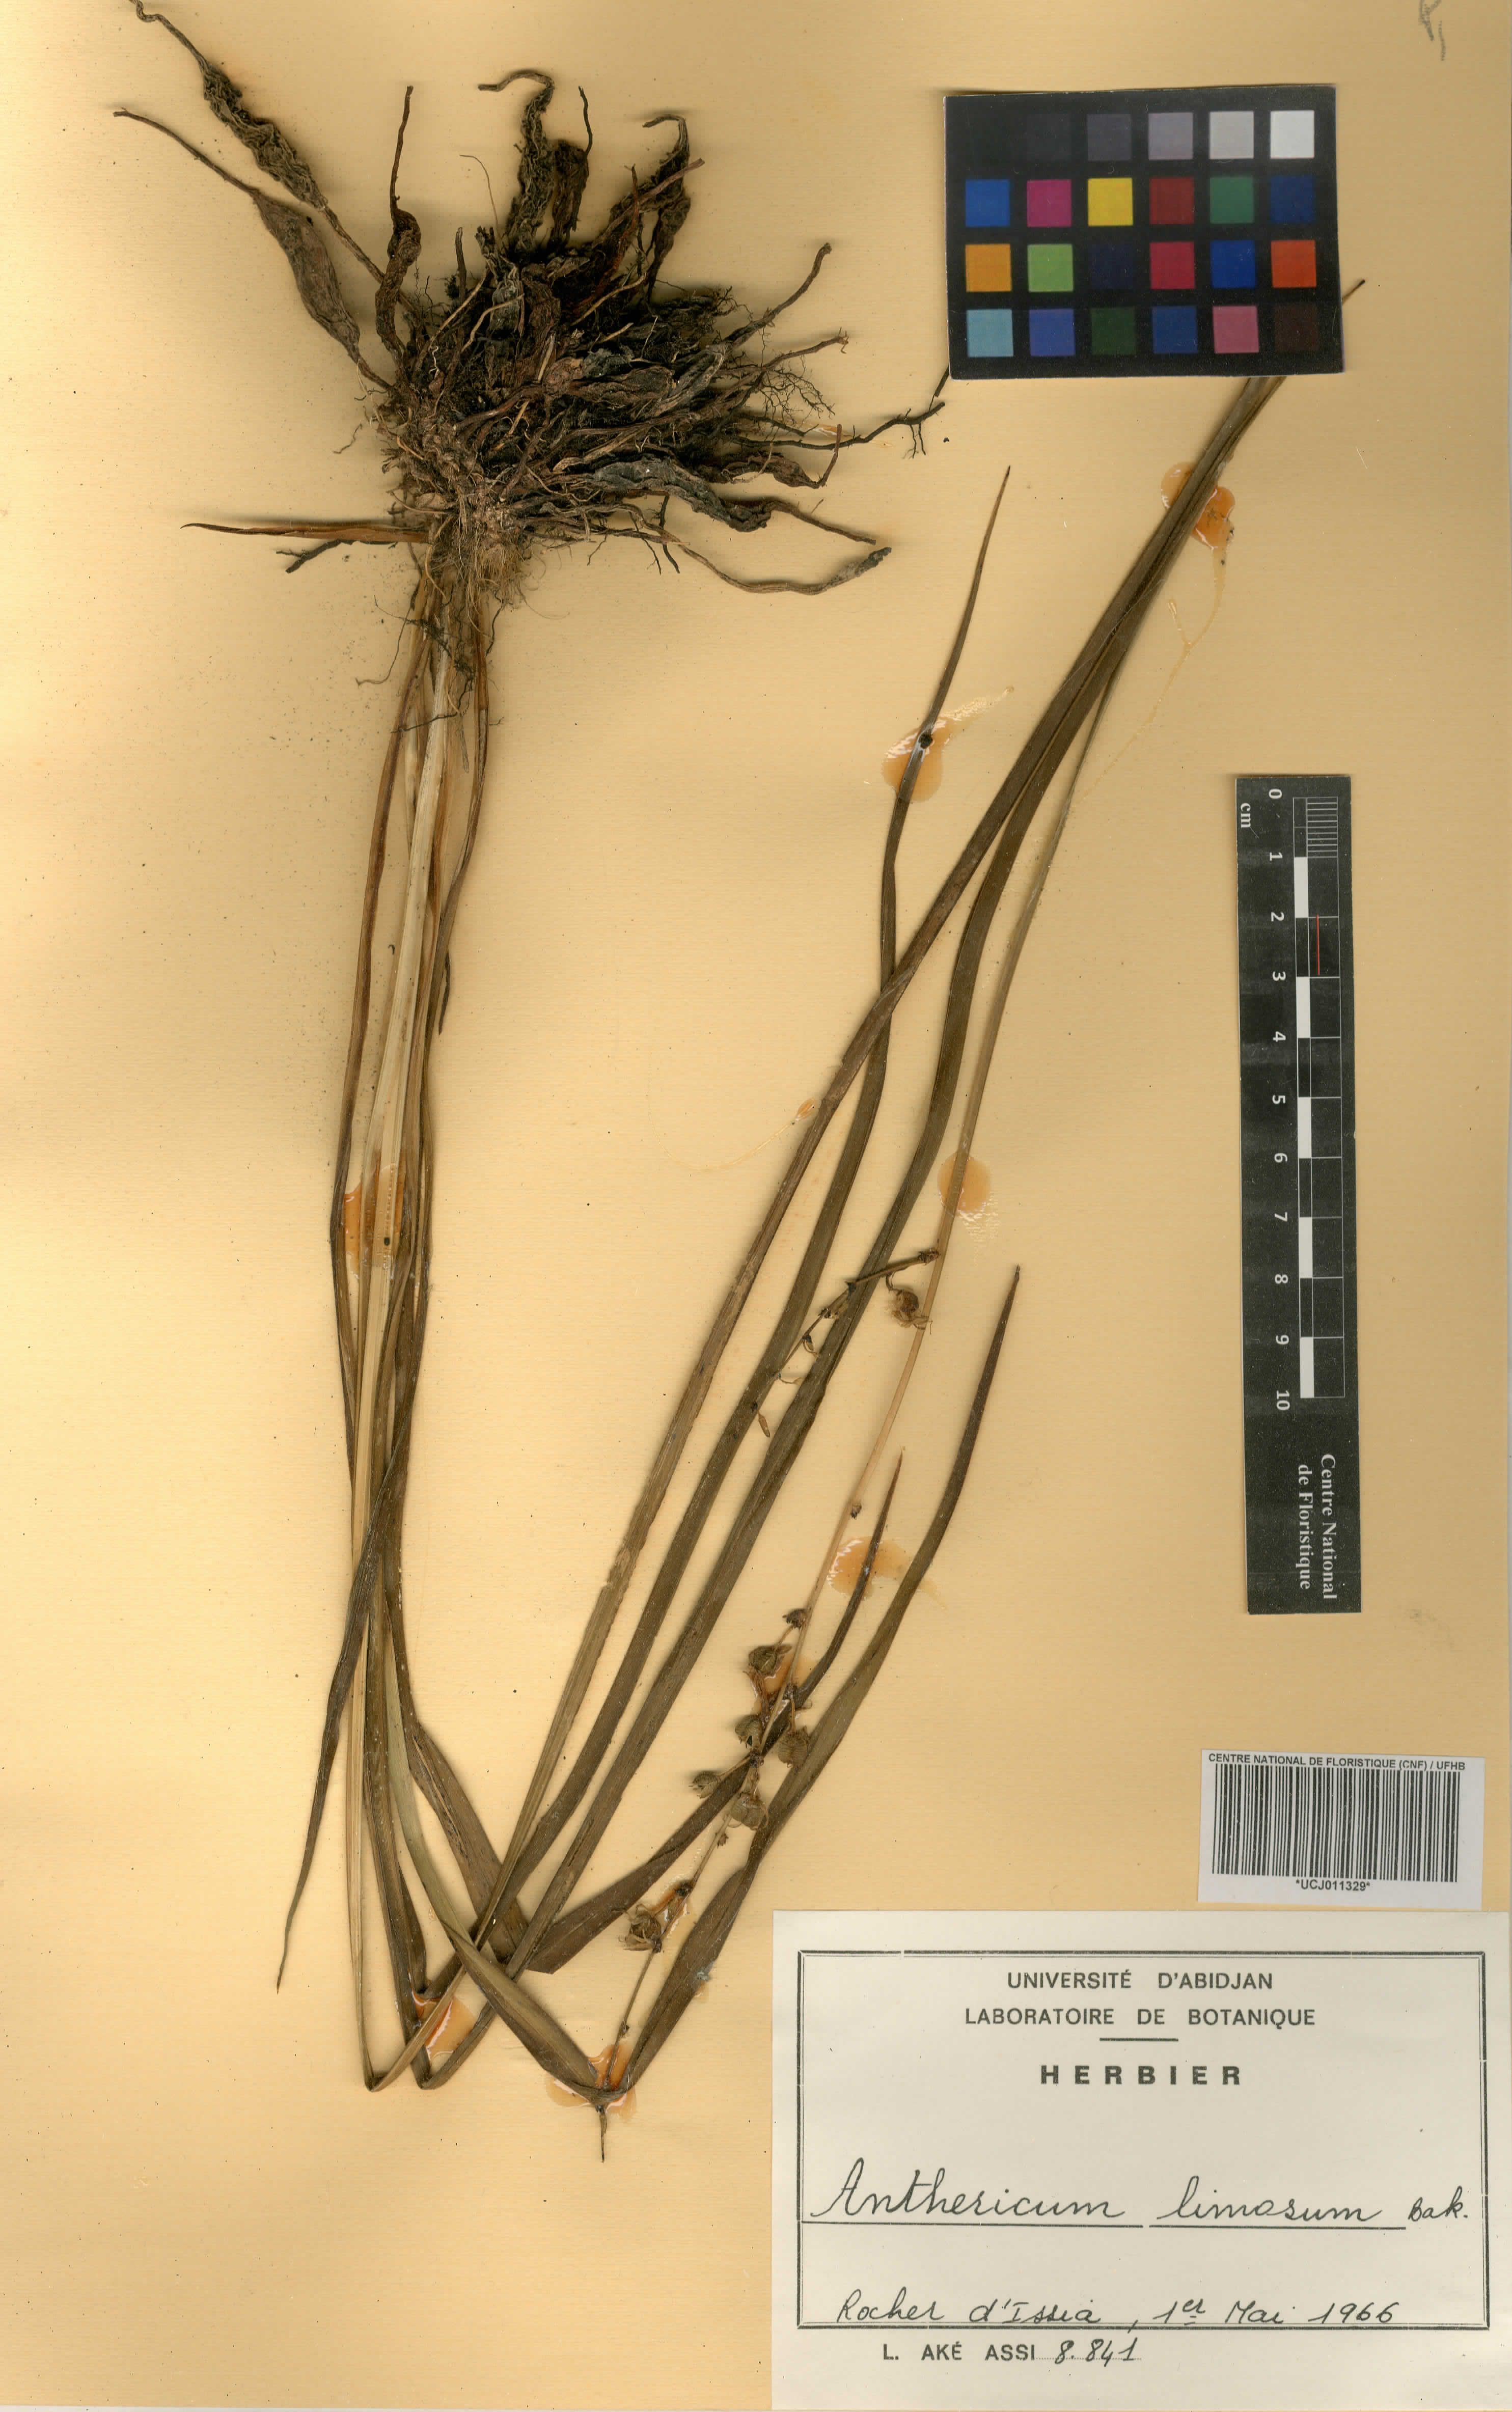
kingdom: Plantae
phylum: Tracheophyta
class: Liliopsida
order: Asparagales
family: Asparagaceae
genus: Chlorophytum
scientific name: Chlorophytum limosum
